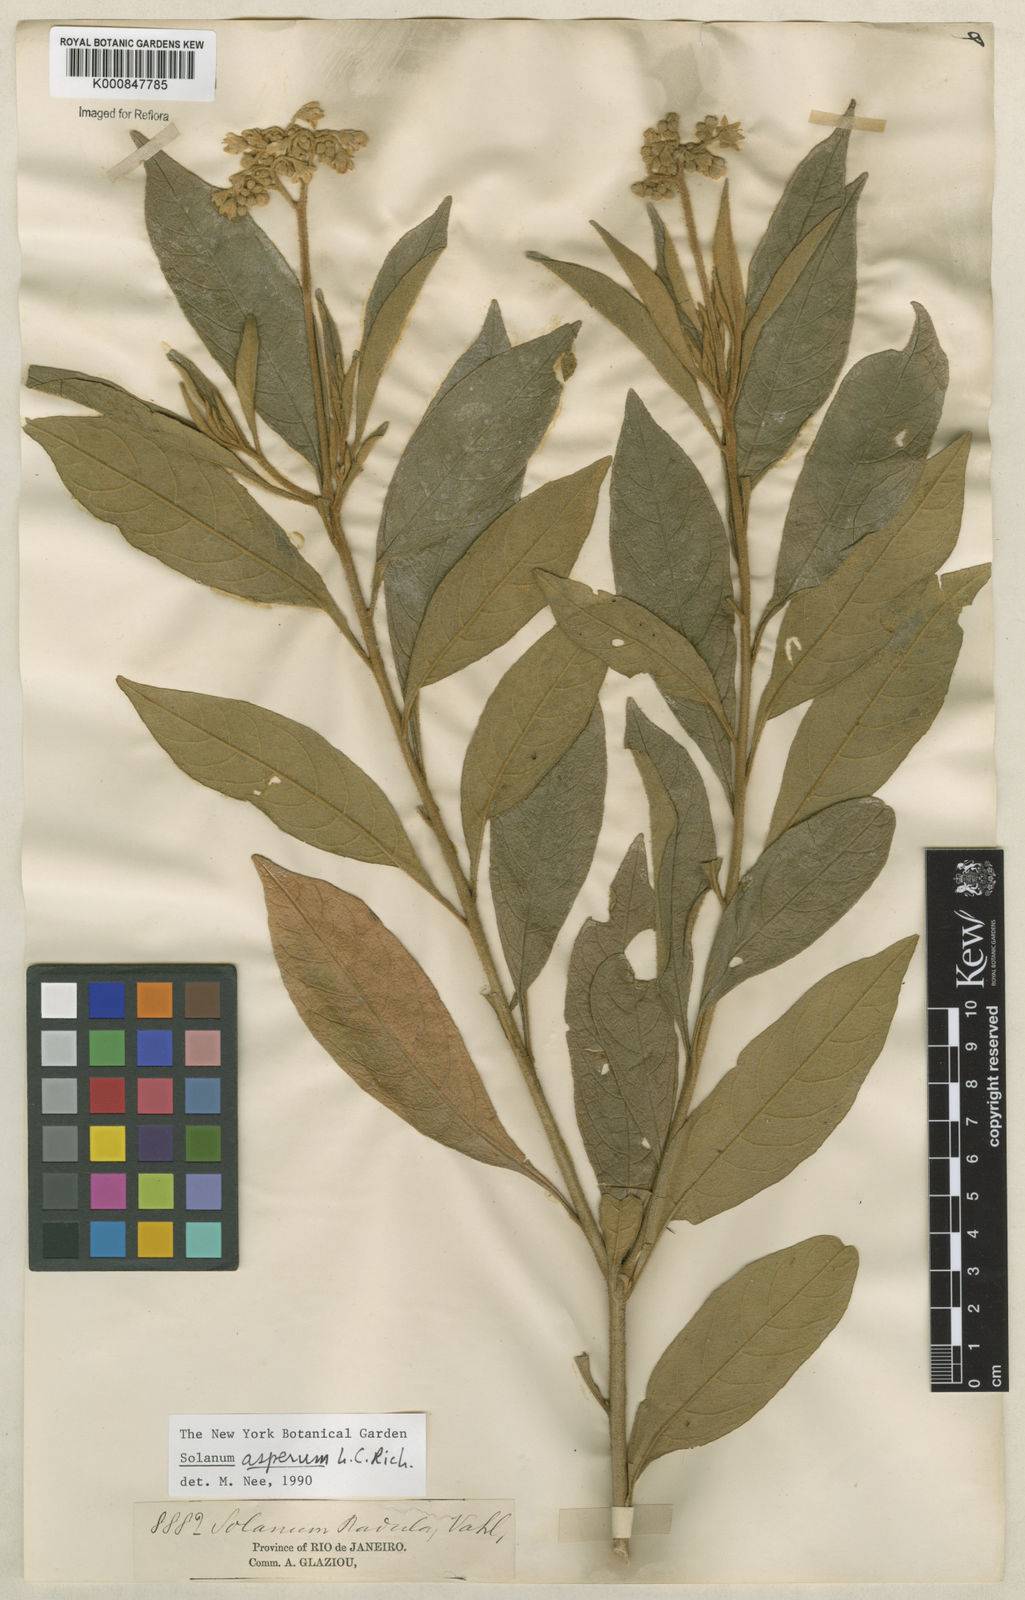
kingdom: Plantae
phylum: Tracheophyta
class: Magnoliopsida
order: Solanales
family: Solanaceae
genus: Solanum
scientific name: Solanum asperum
